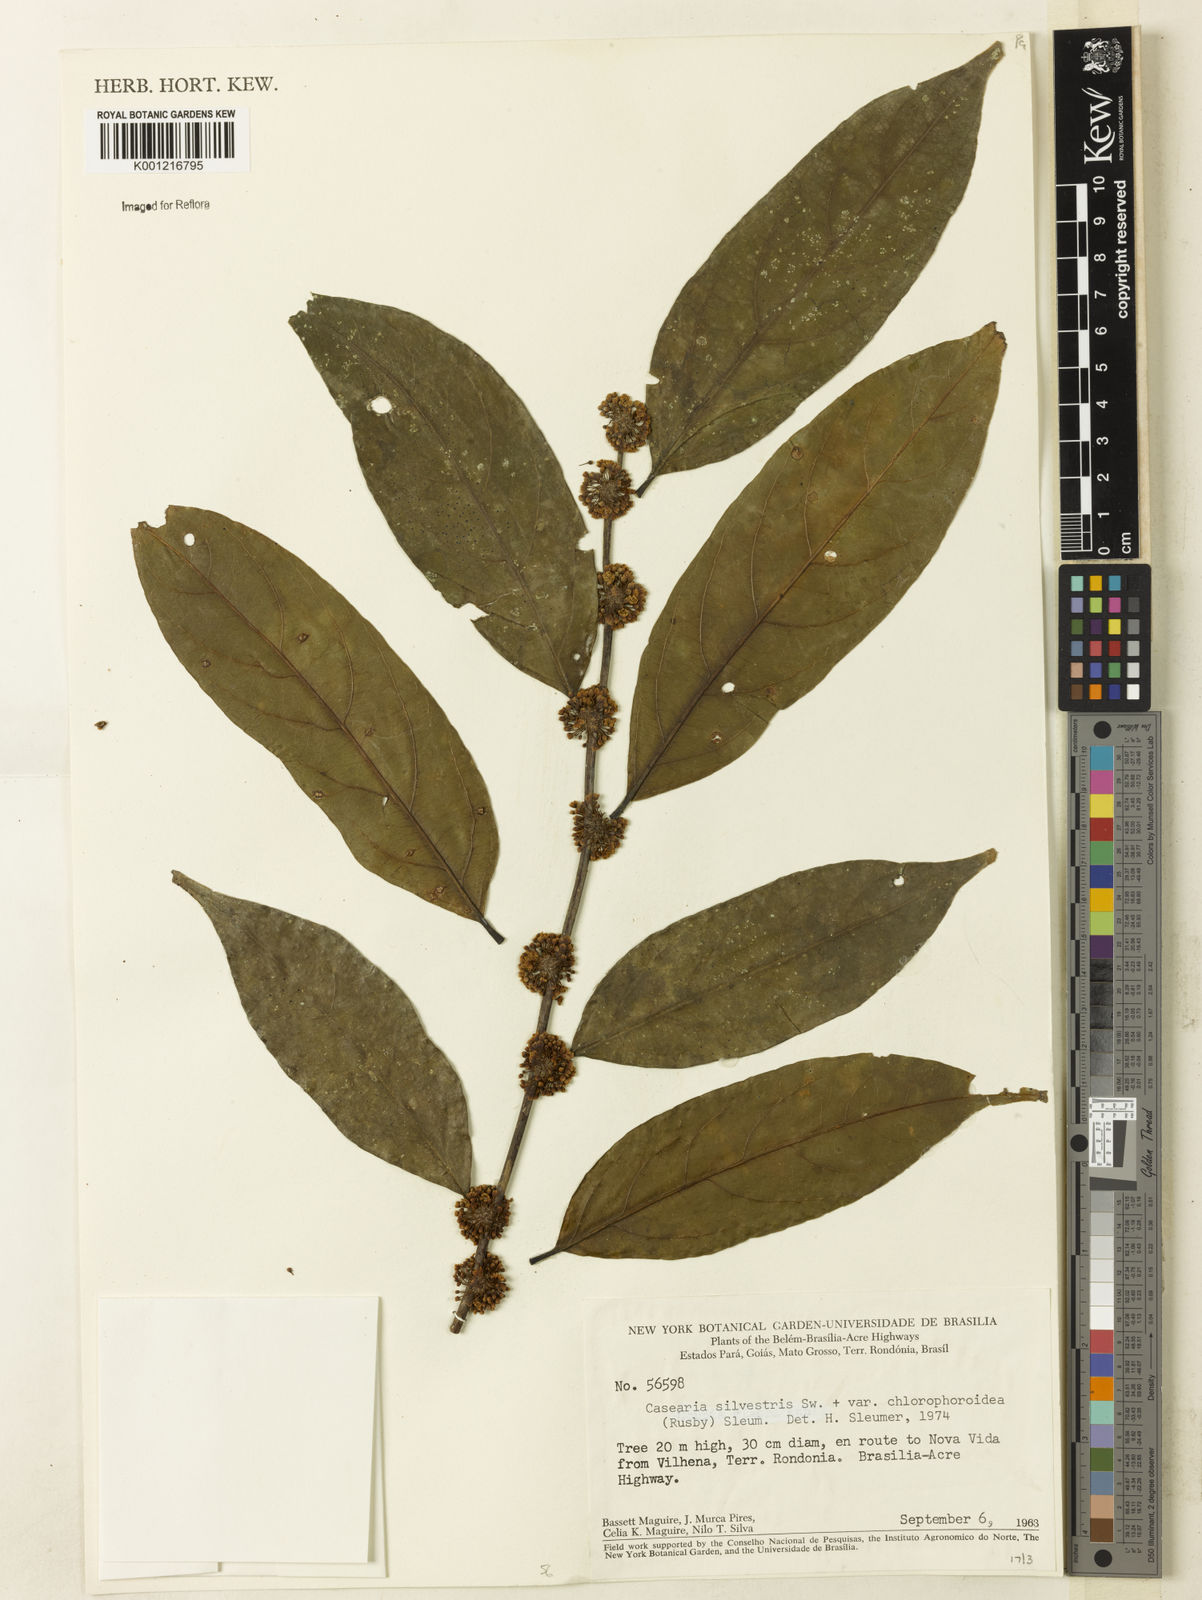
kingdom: Plantae
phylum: Tracheophyta
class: Magnoliopsida
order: Malpighiales
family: Salicaceae
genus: Casearia
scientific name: Casearia sylvestris
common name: Wild sage
